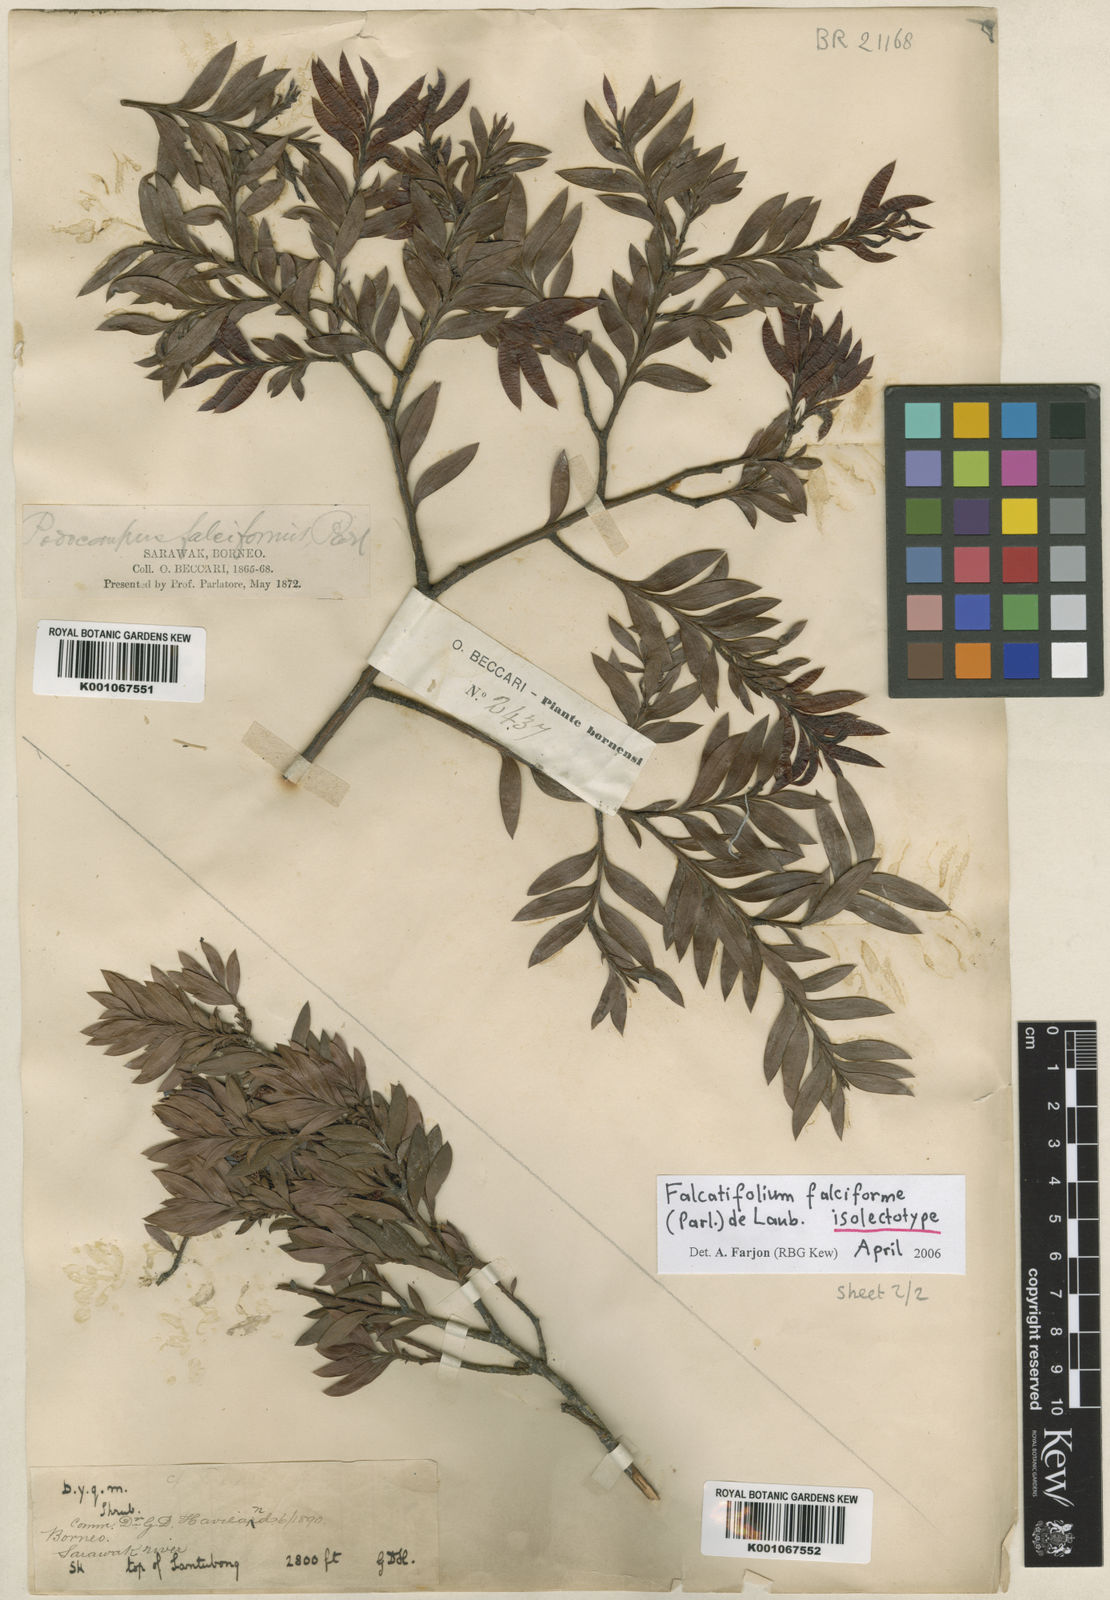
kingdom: Plantae
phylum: Tracheophyta
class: Pinopsida
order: Pinales
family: Podocarpaceae
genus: Falcatifolium
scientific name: Falcatifolium falciforme
